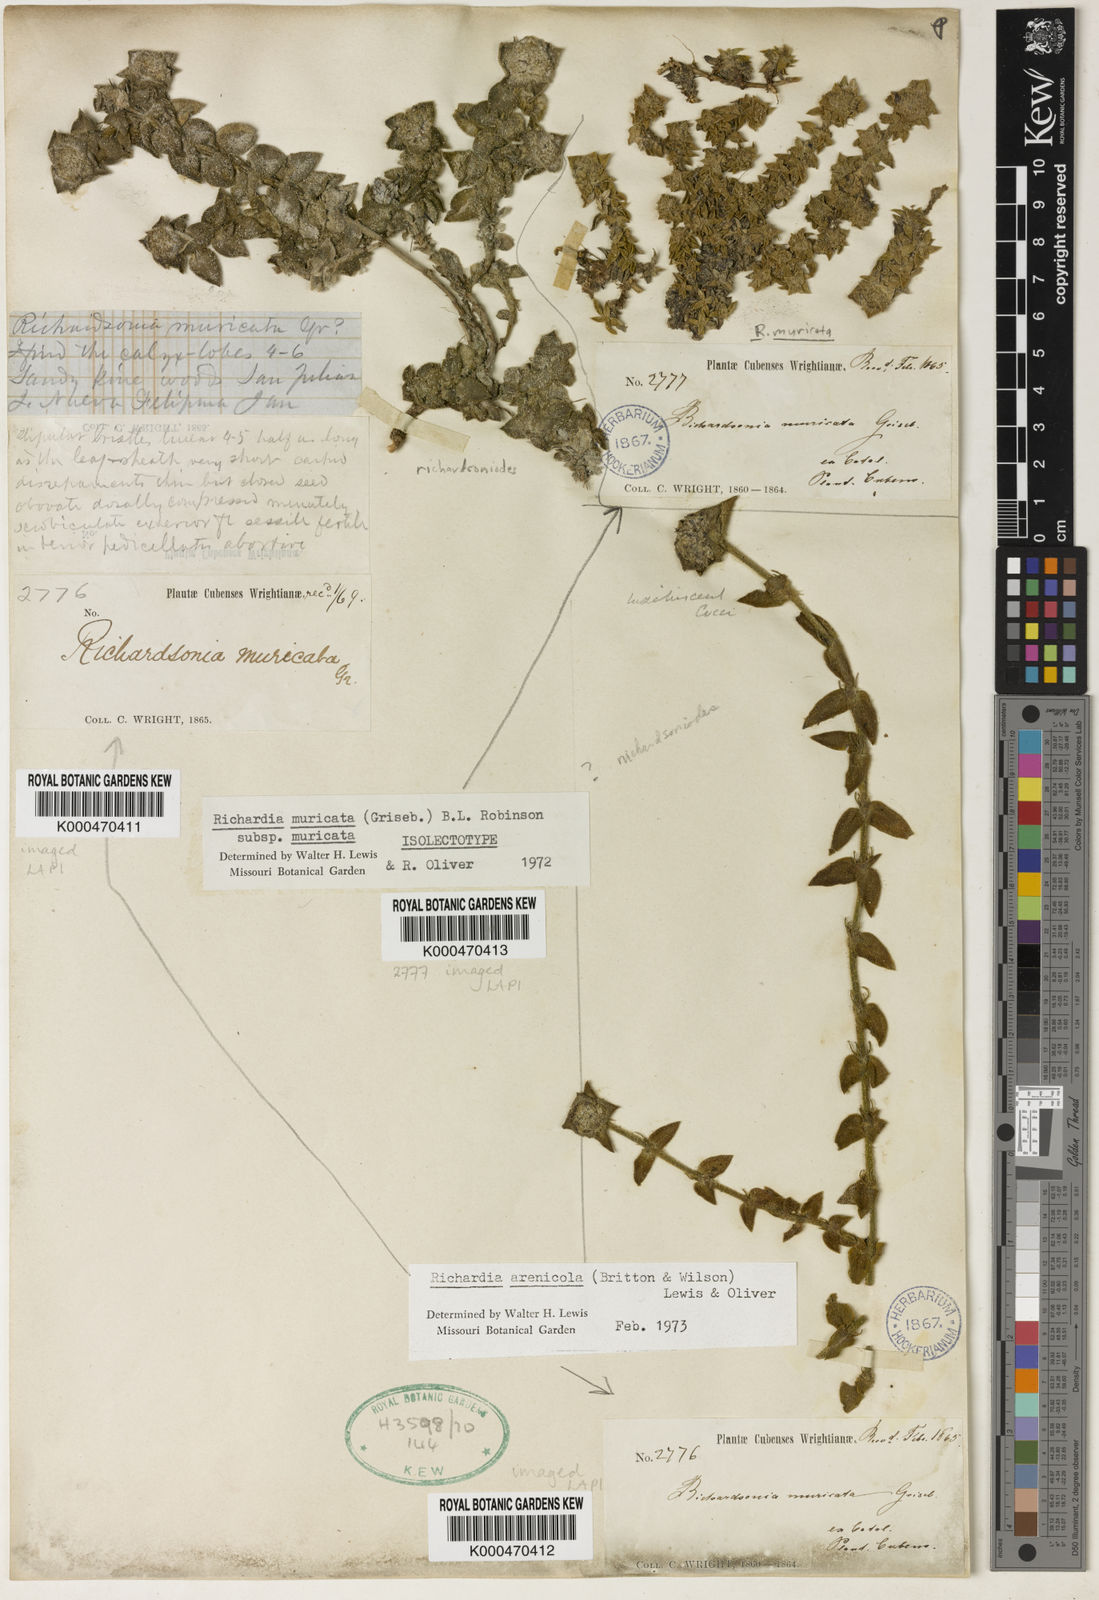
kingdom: Plantae
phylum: Tracheophyta
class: Magnoliopsida
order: Gentianales
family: Rubiaceae
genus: Richardia
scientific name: Richardia muricata
